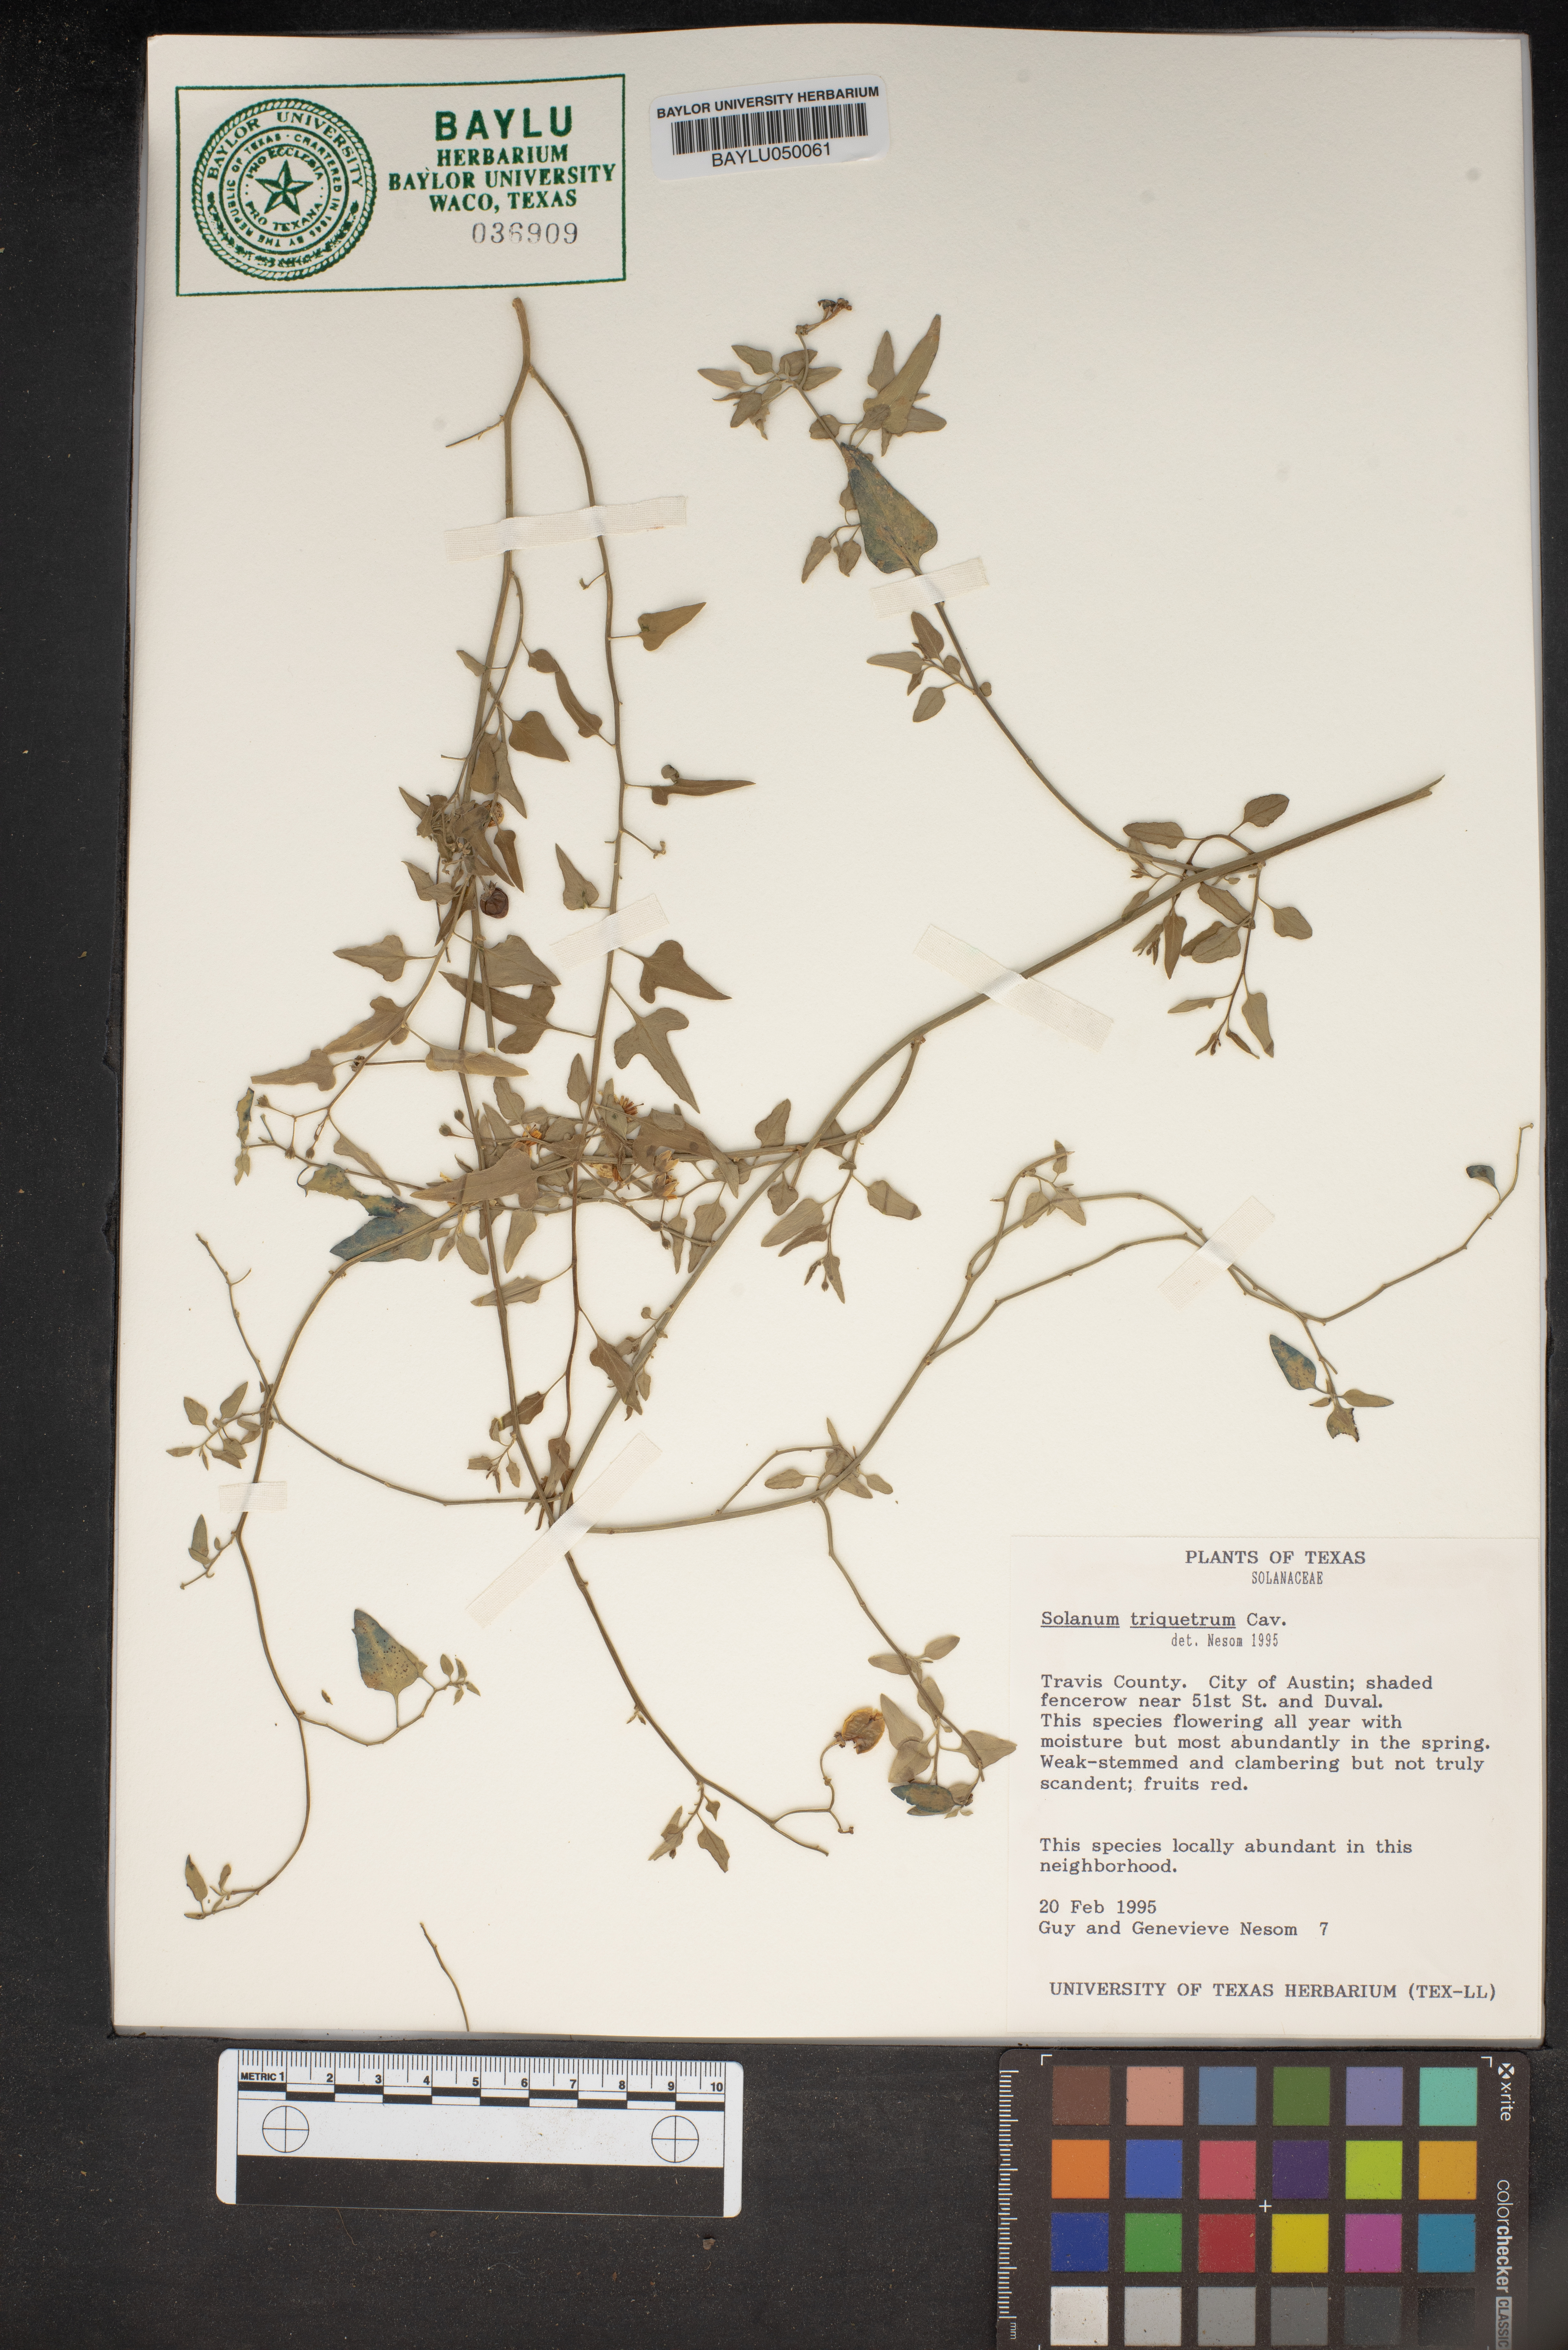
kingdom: Plantae
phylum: Tracheophyta
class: Magnoliopsida
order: Solanales
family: Solanaceae
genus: Solanum
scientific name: Solanum triquetrum
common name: Texas nightshade
